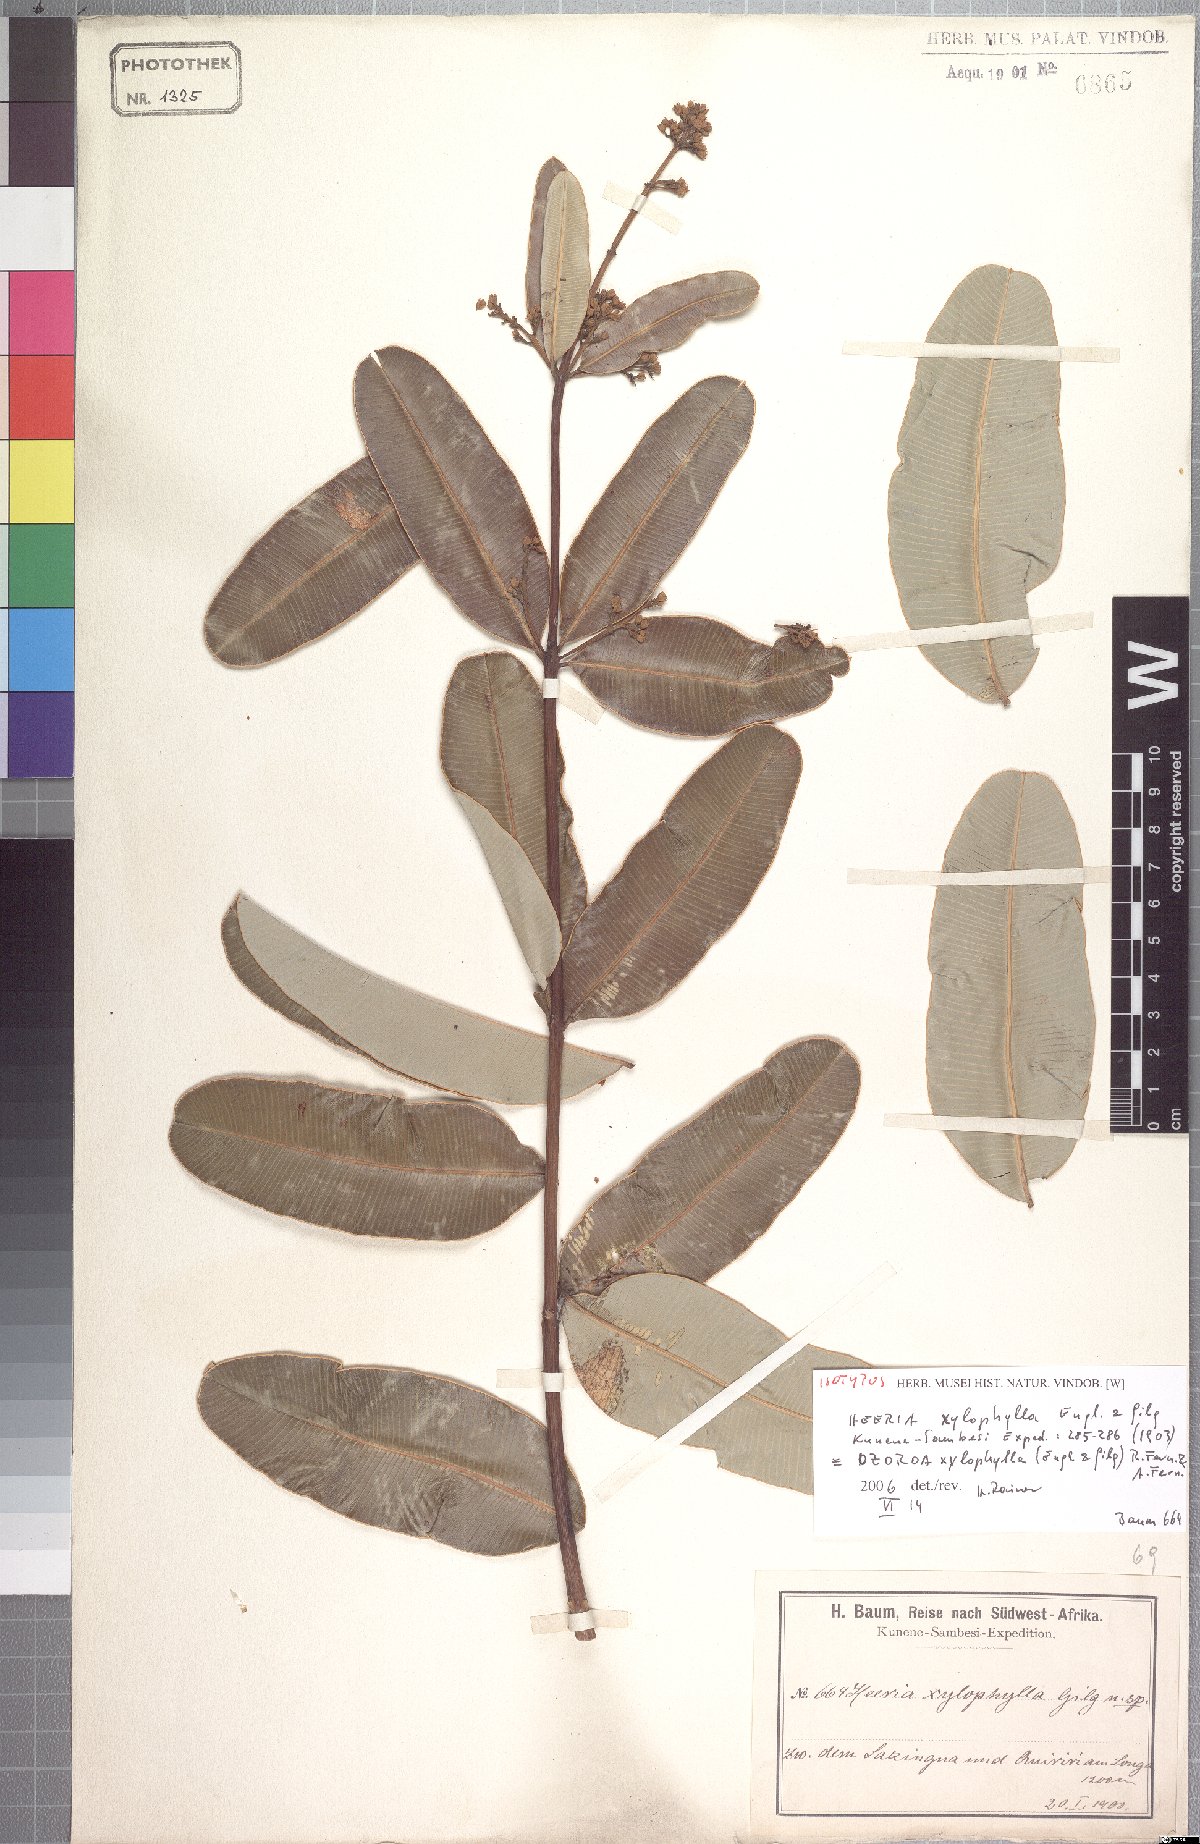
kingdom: Plantae
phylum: Tracheophyta
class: Magnoliopsida
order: Sapindales
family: Anacardiaceae
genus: Ozoroa
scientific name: Ozoroa xylophylla
